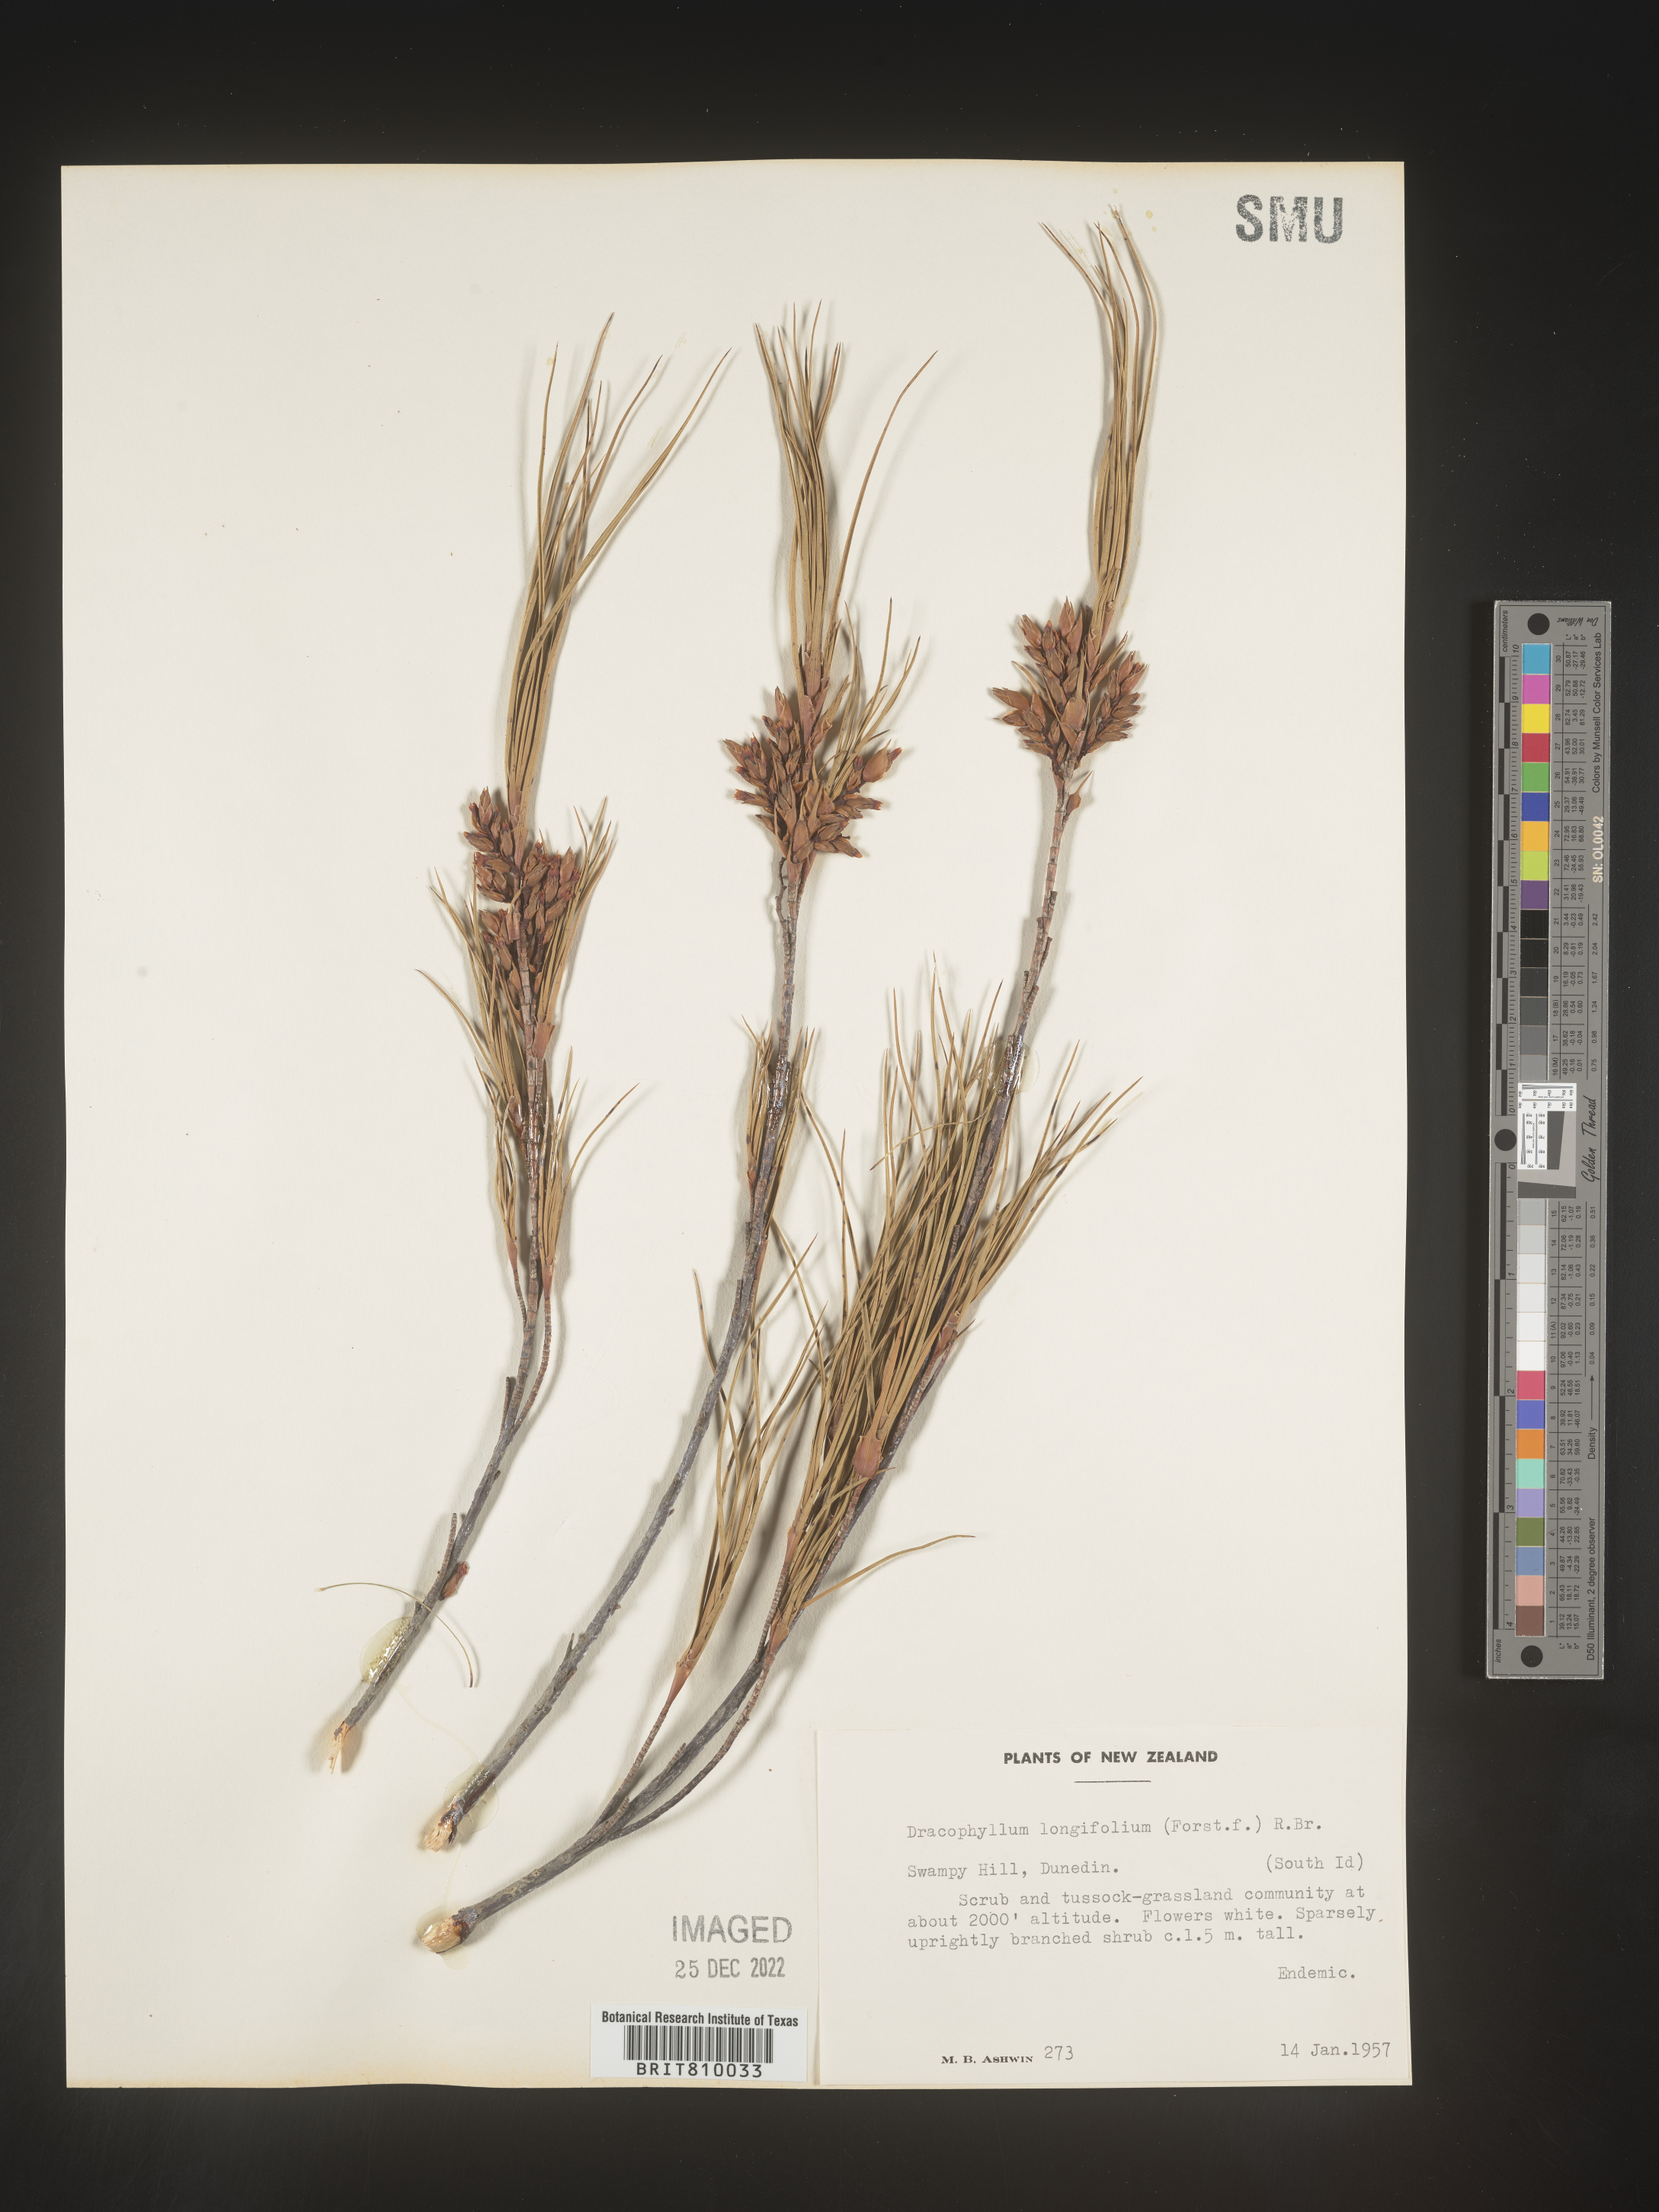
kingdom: Plantae
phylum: Tracheophyta
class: Magnoliopsida
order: Ericales
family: Ericaceae
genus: Dracophyllum
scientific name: Dracophyllum
